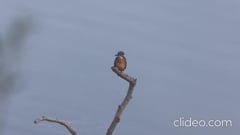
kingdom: Animalia
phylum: Chordata
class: Aves
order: Coraciiformes
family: Alcedinidae
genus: Alcedo
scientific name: Alcedo atthis
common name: Common kingfisher
